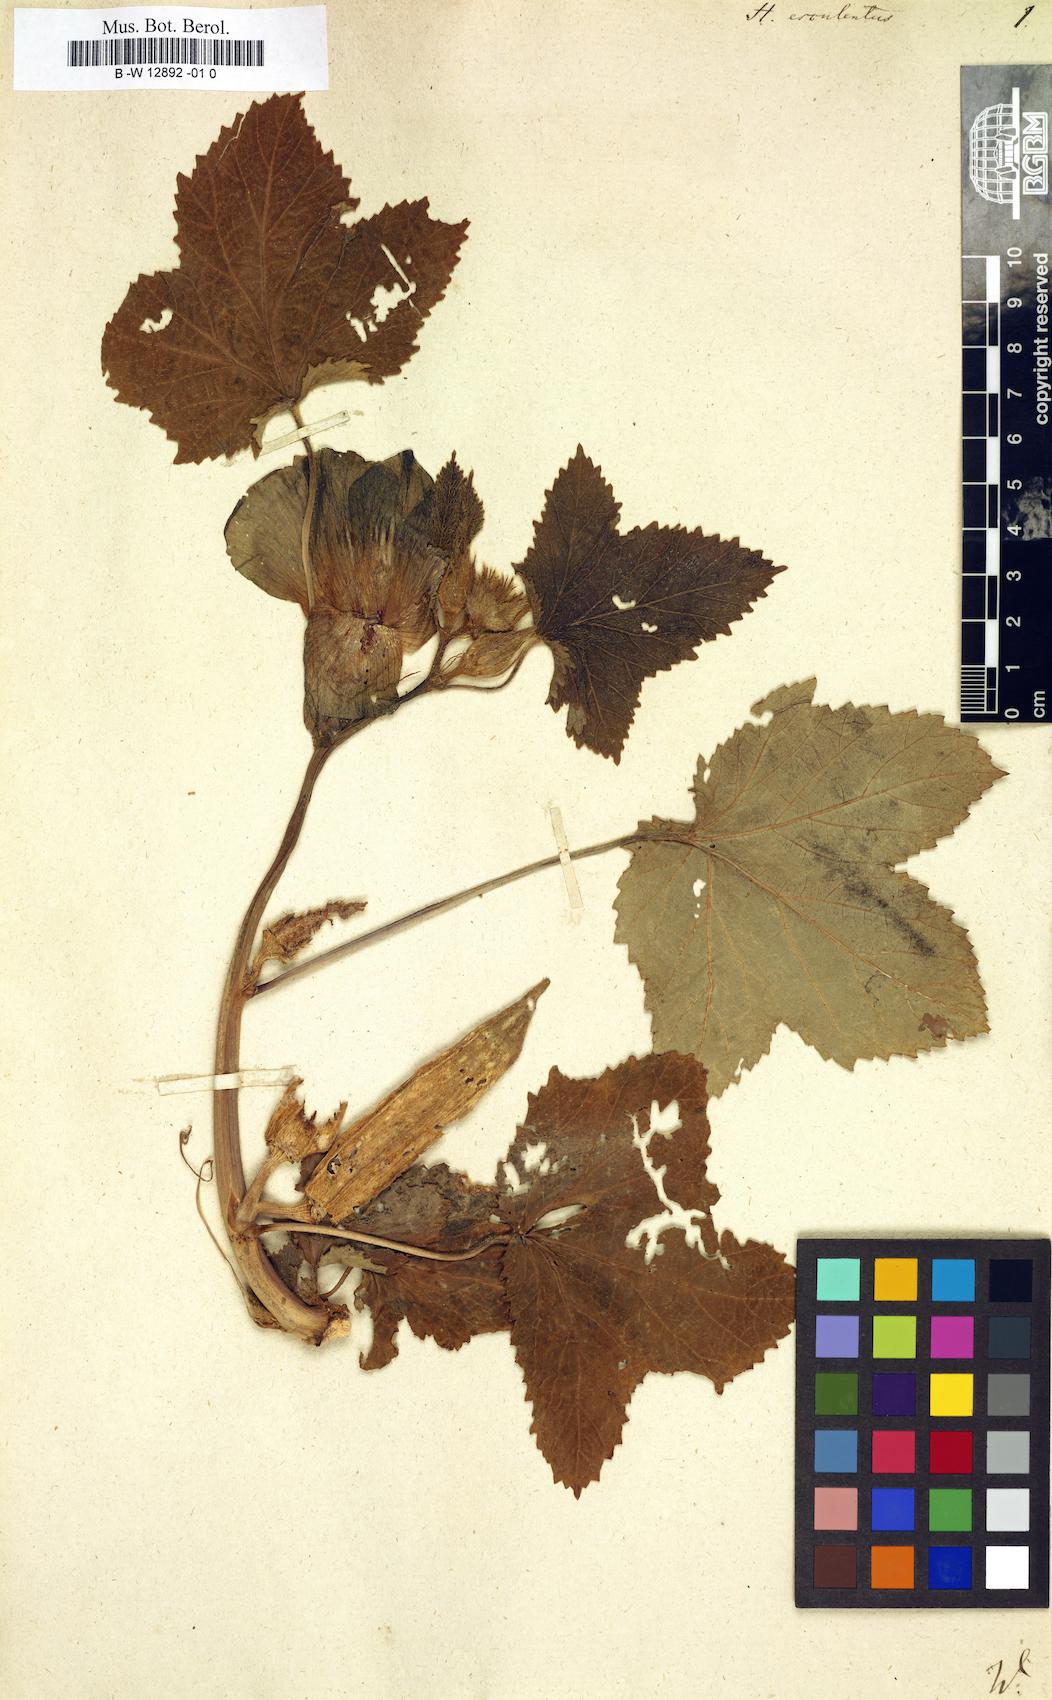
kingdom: Plantae
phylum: Tracheophyta
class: Magnoliopsida
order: Malvales
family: Malvaceae
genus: Abelmoschus
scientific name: Abelmoschus esculentus
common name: Okra
